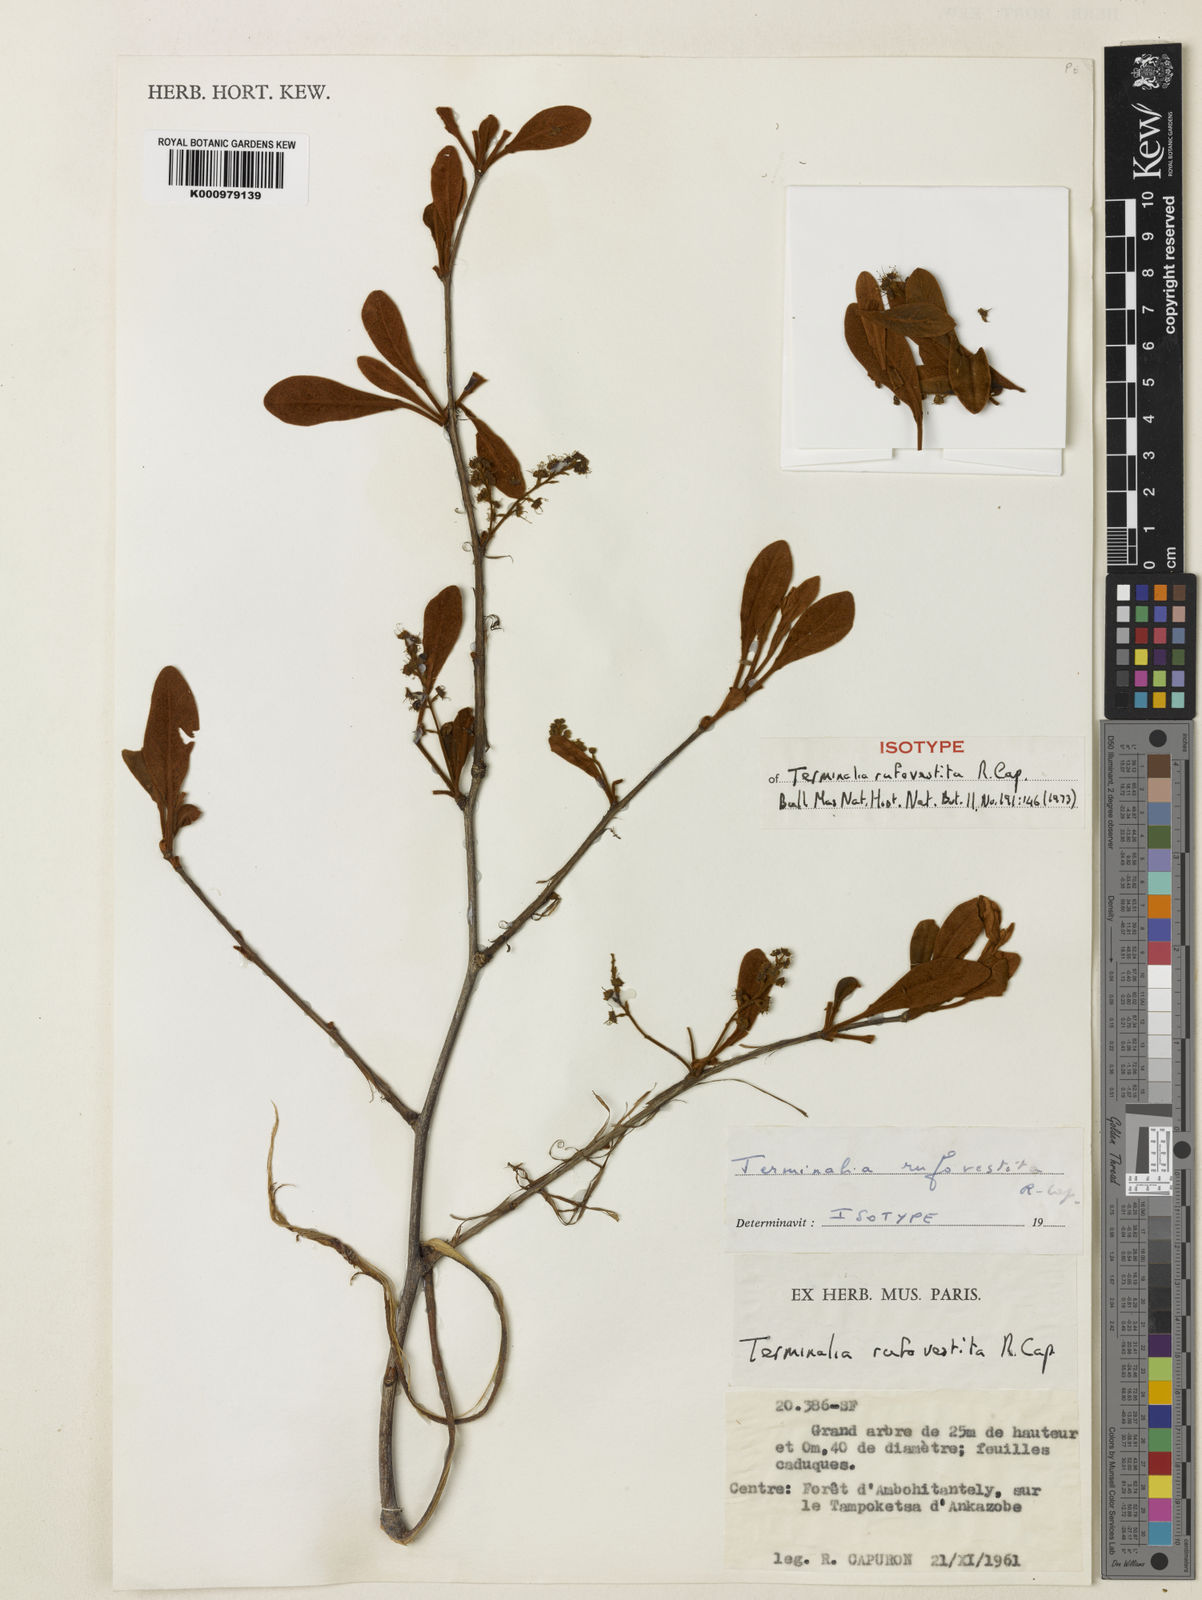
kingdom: Plantae
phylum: Tracheophyta
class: Magnoliopsida
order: Myrtales
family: Combretaceae
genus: Terminalia
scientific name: Terminalia rufovestita
